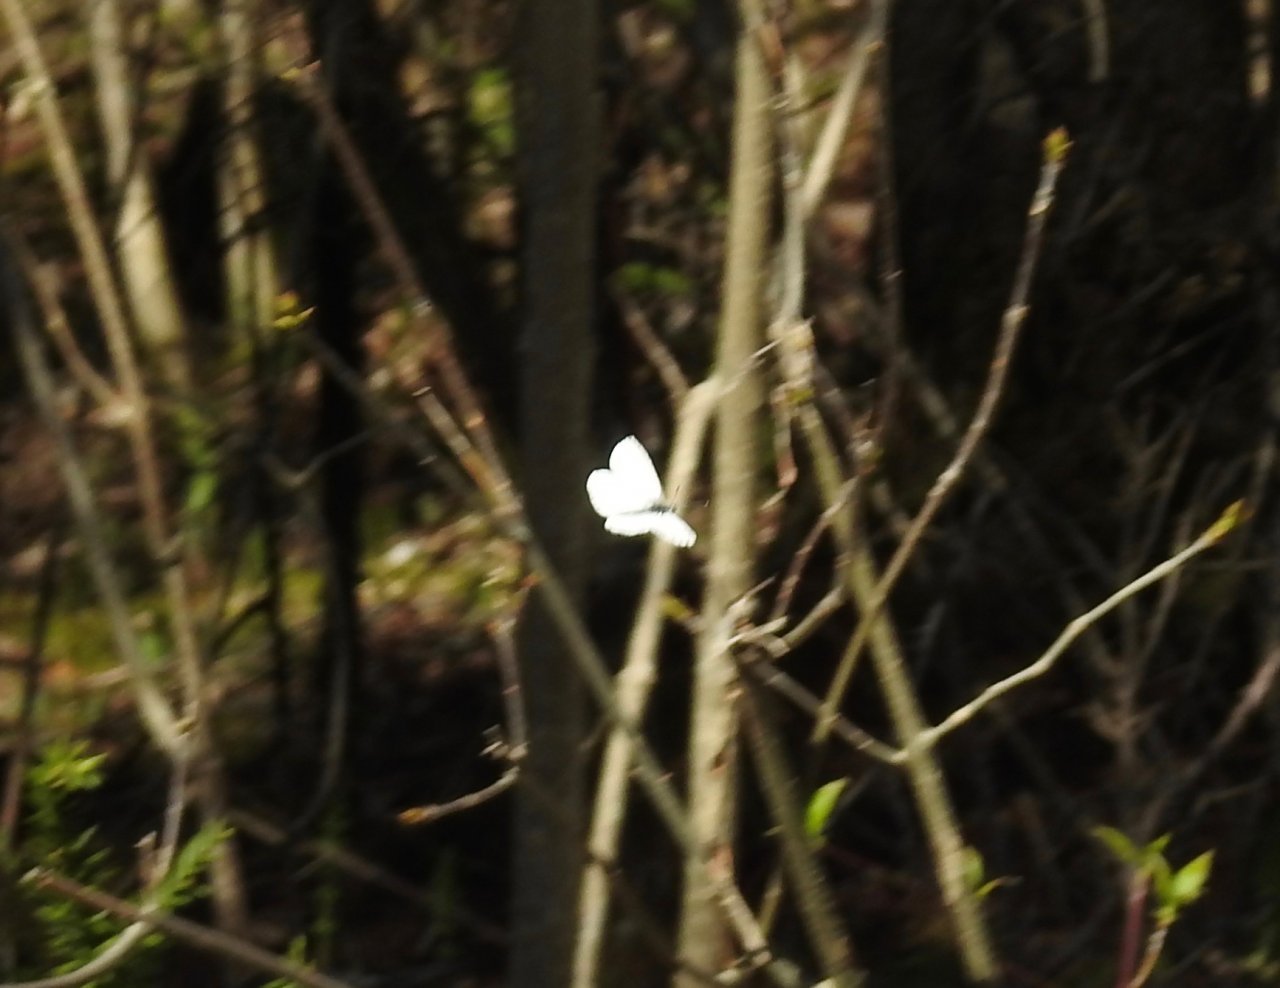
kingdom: Animalia
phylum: Arthropoda
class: Insecta
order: Lepidoptera
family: Pieridae
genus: Pieris
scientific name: Pieris oleracea
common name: Mustard White
